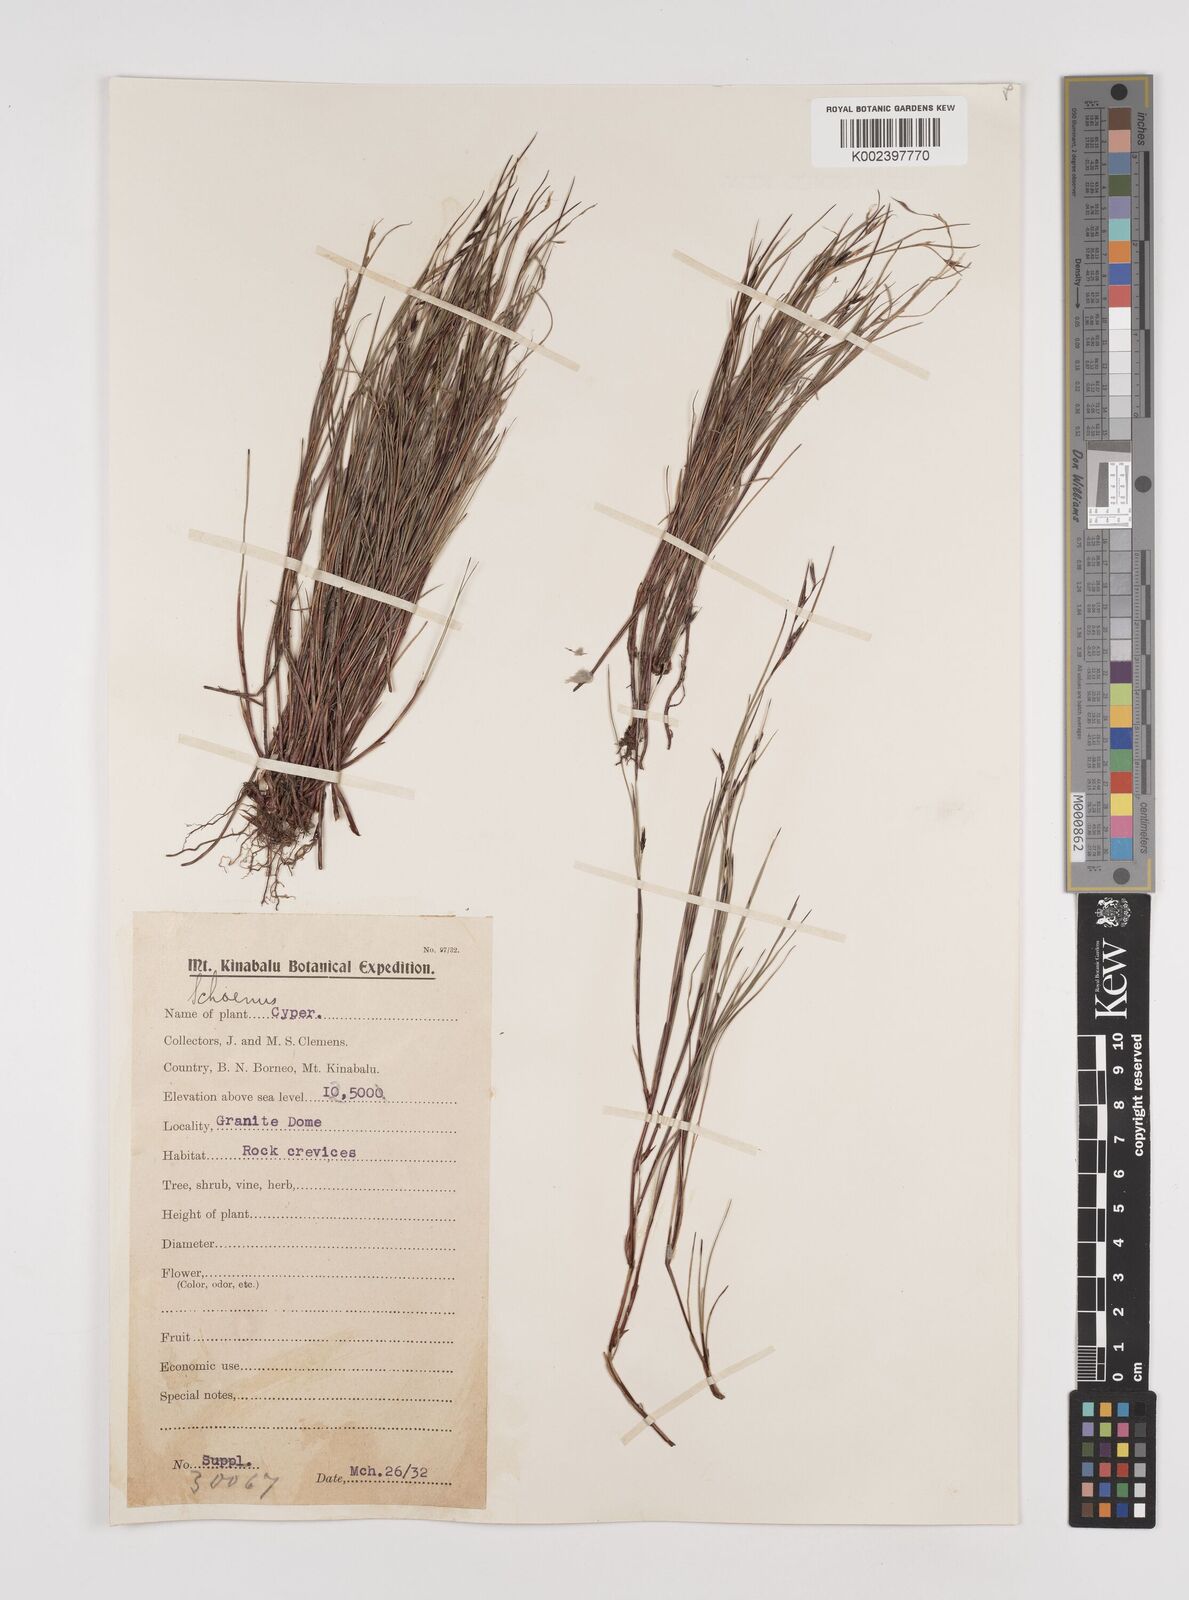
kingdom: Plantae
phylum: Tracheophyta
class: Liliopsida
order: Poales
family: Cyperaceae
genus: Schoenus
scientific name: Schoenus curvulus
